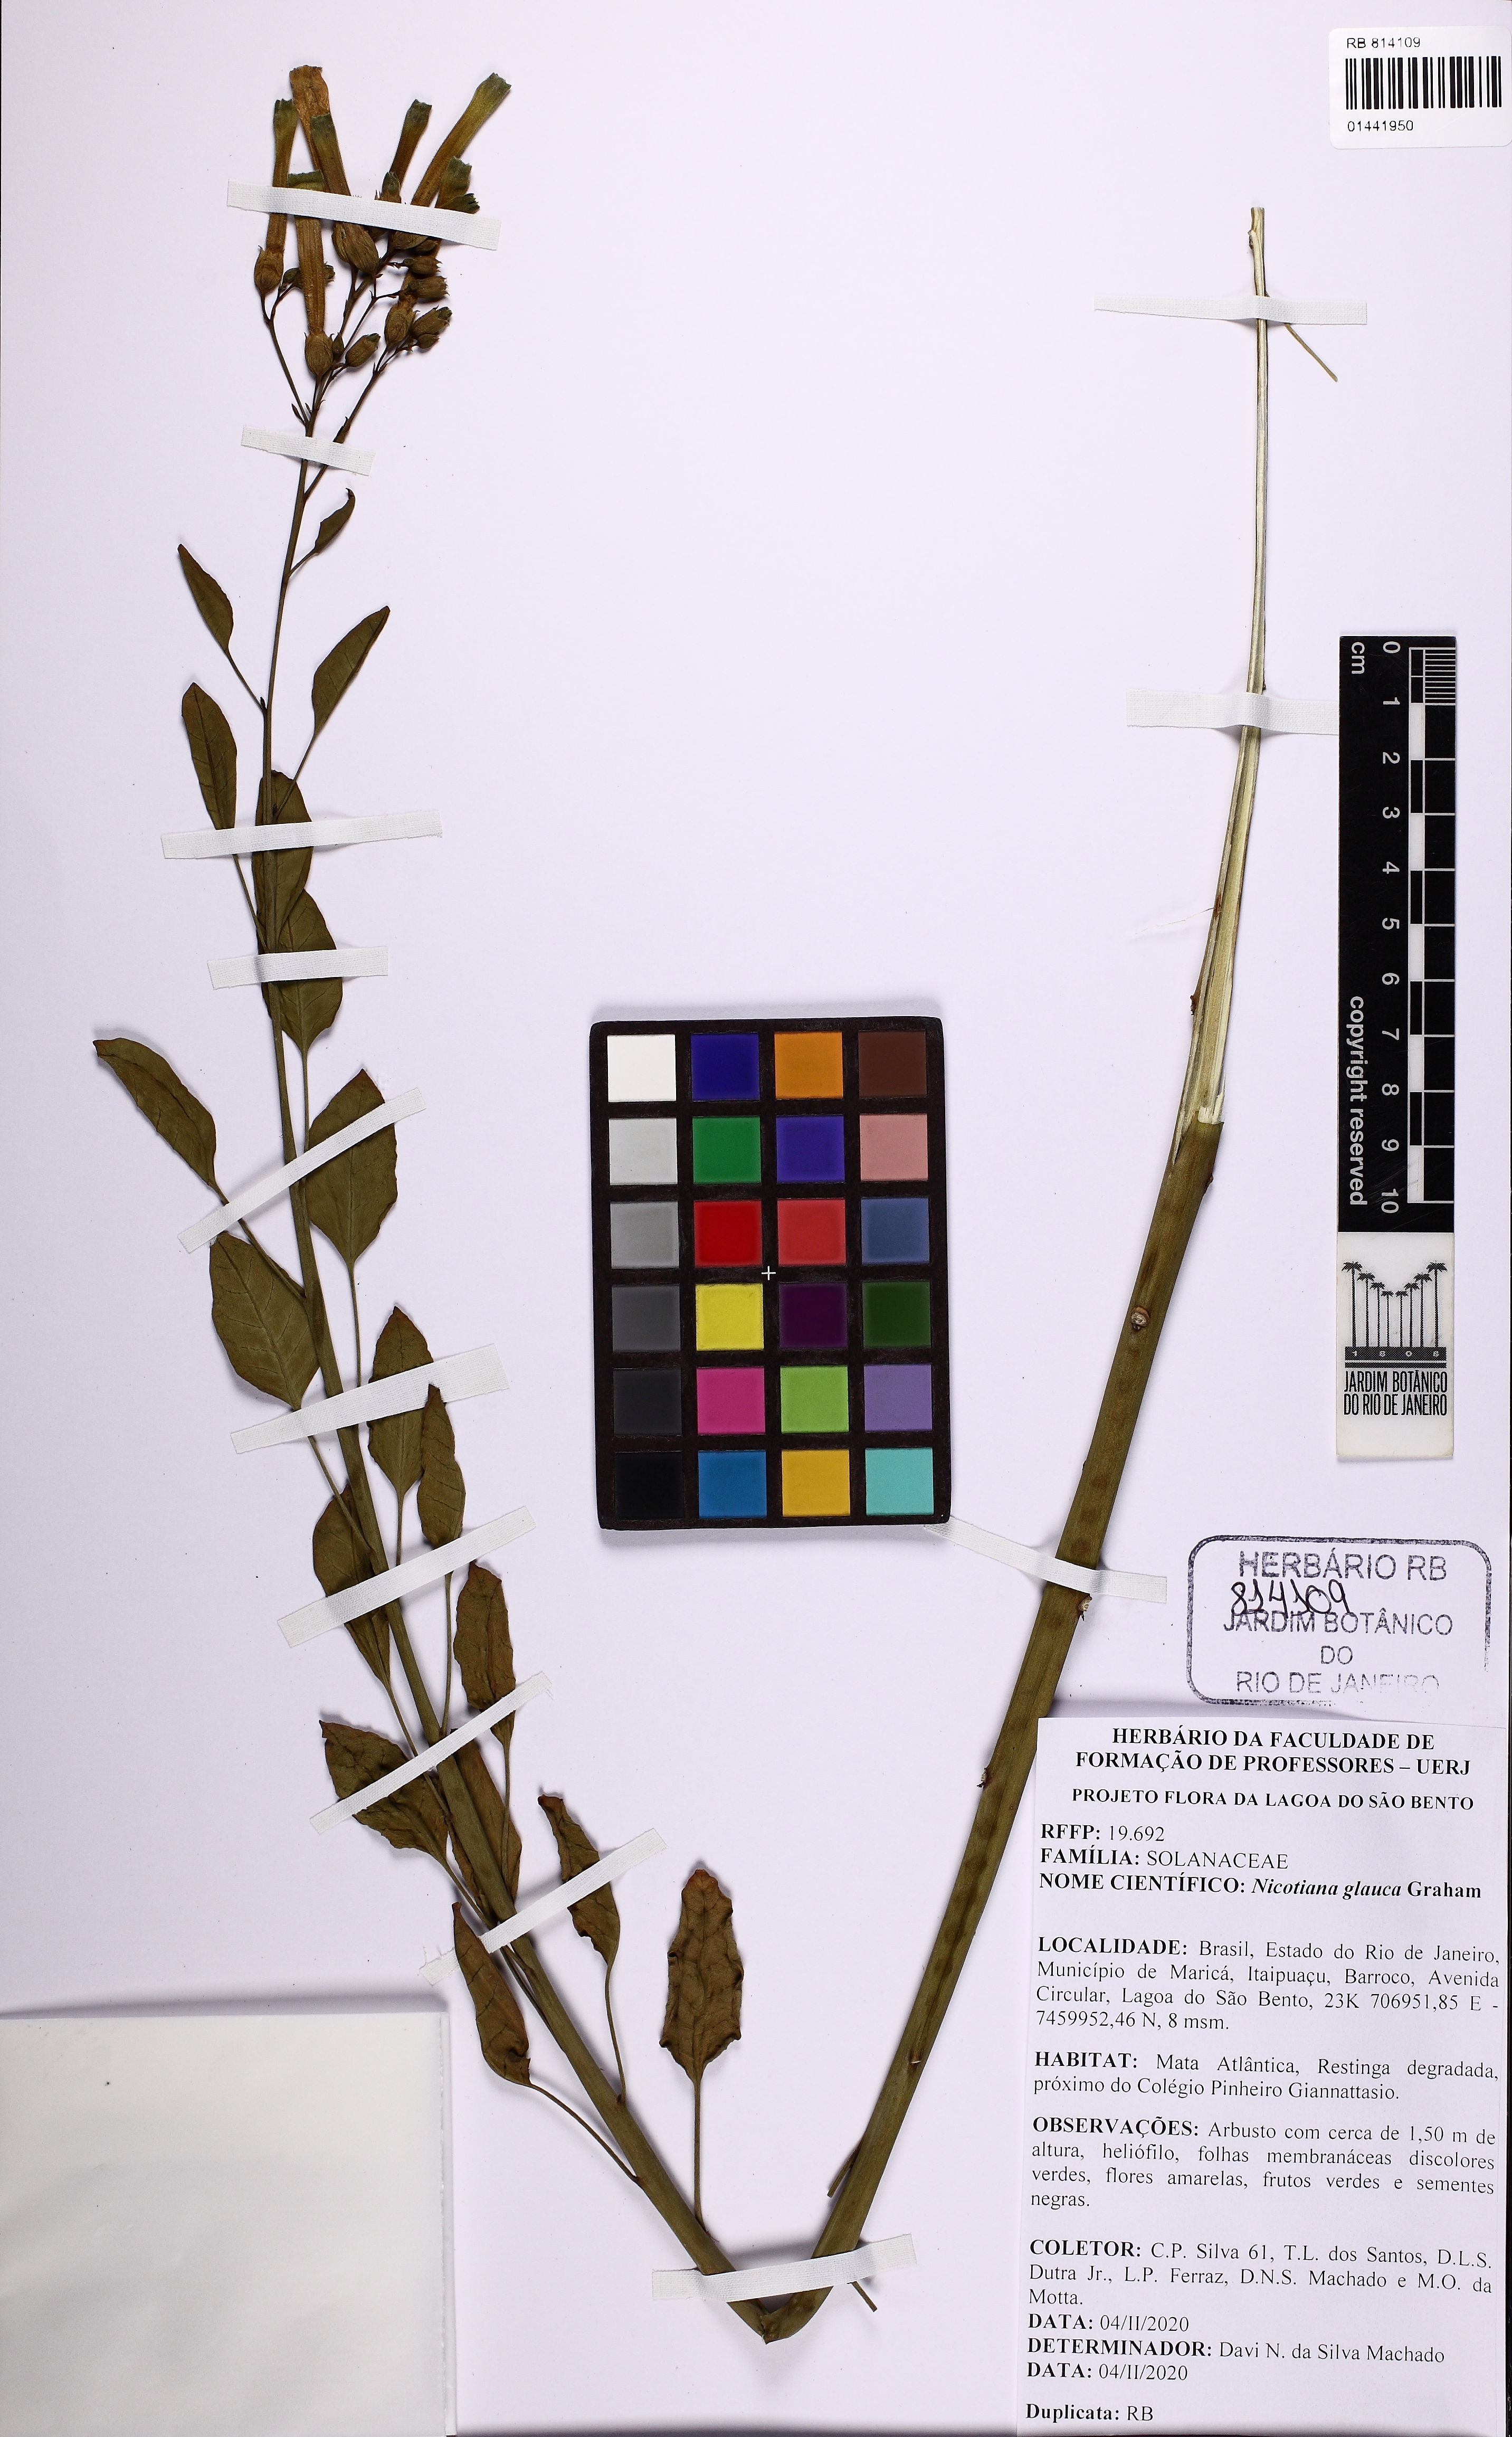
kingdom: Plantae
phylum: Tracheophyta
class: Magnoliopsida
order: Solanales
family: Solanaceae
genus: Nicotiana
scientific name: Nicotiana glauca
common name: Tree tobacco
